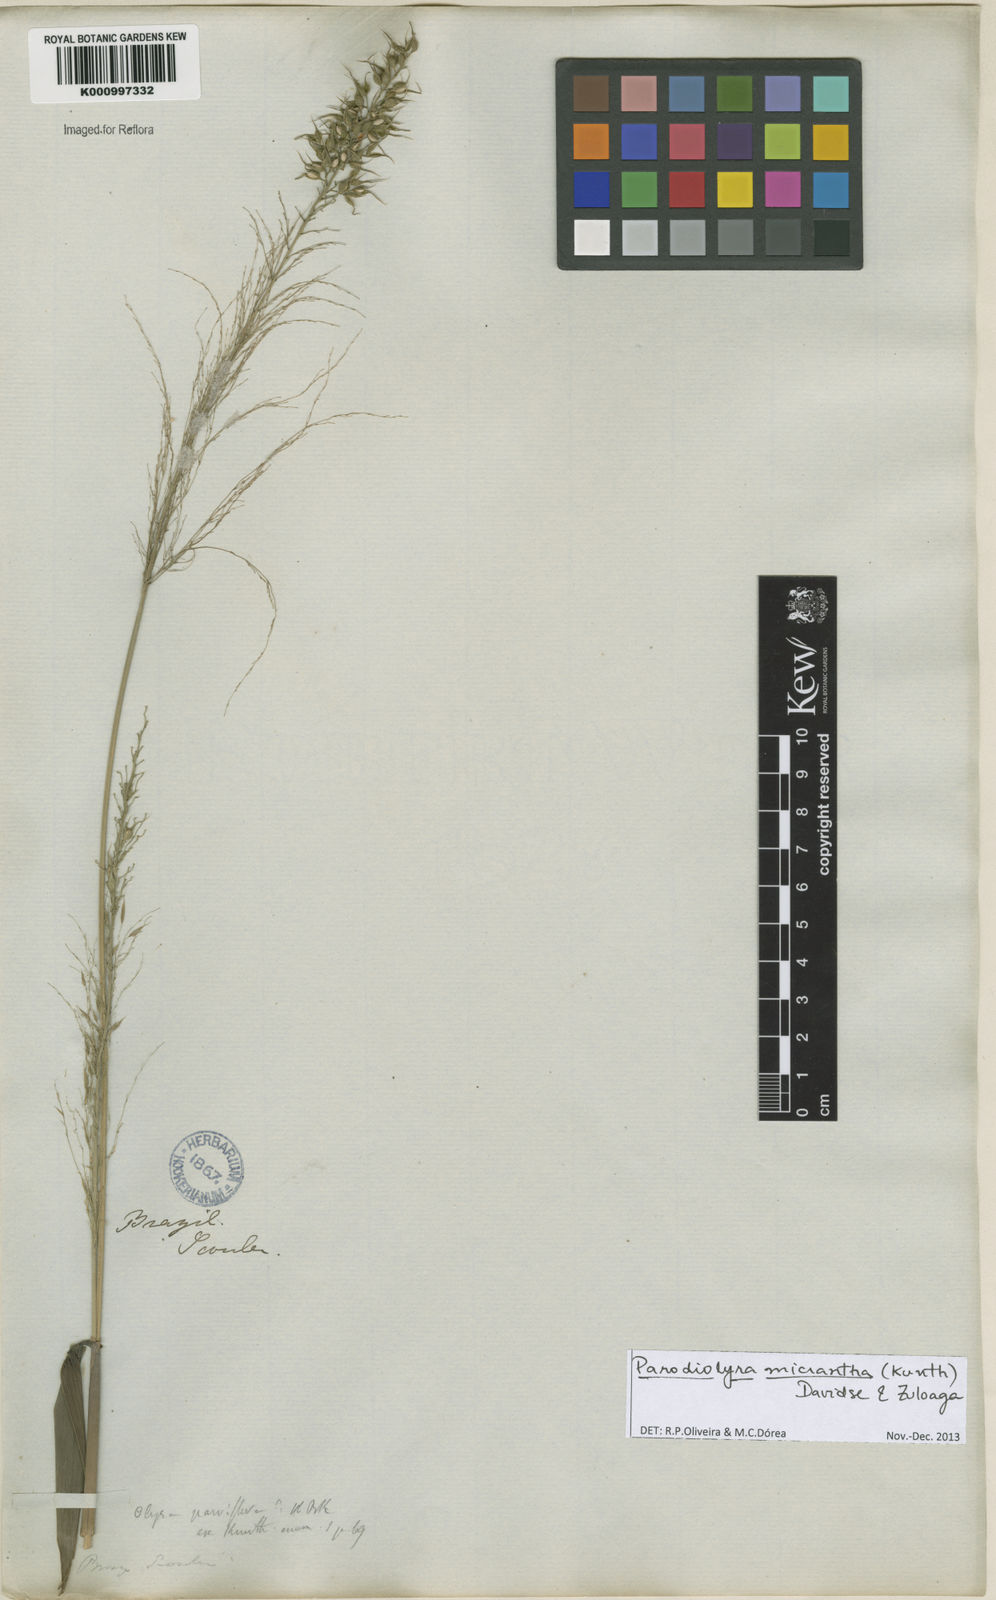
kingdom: Plantae
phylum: Tracheophyta
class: Liliopsida
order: Poales
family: Poaceae
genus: Taquara
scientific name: Taquara micrantha
